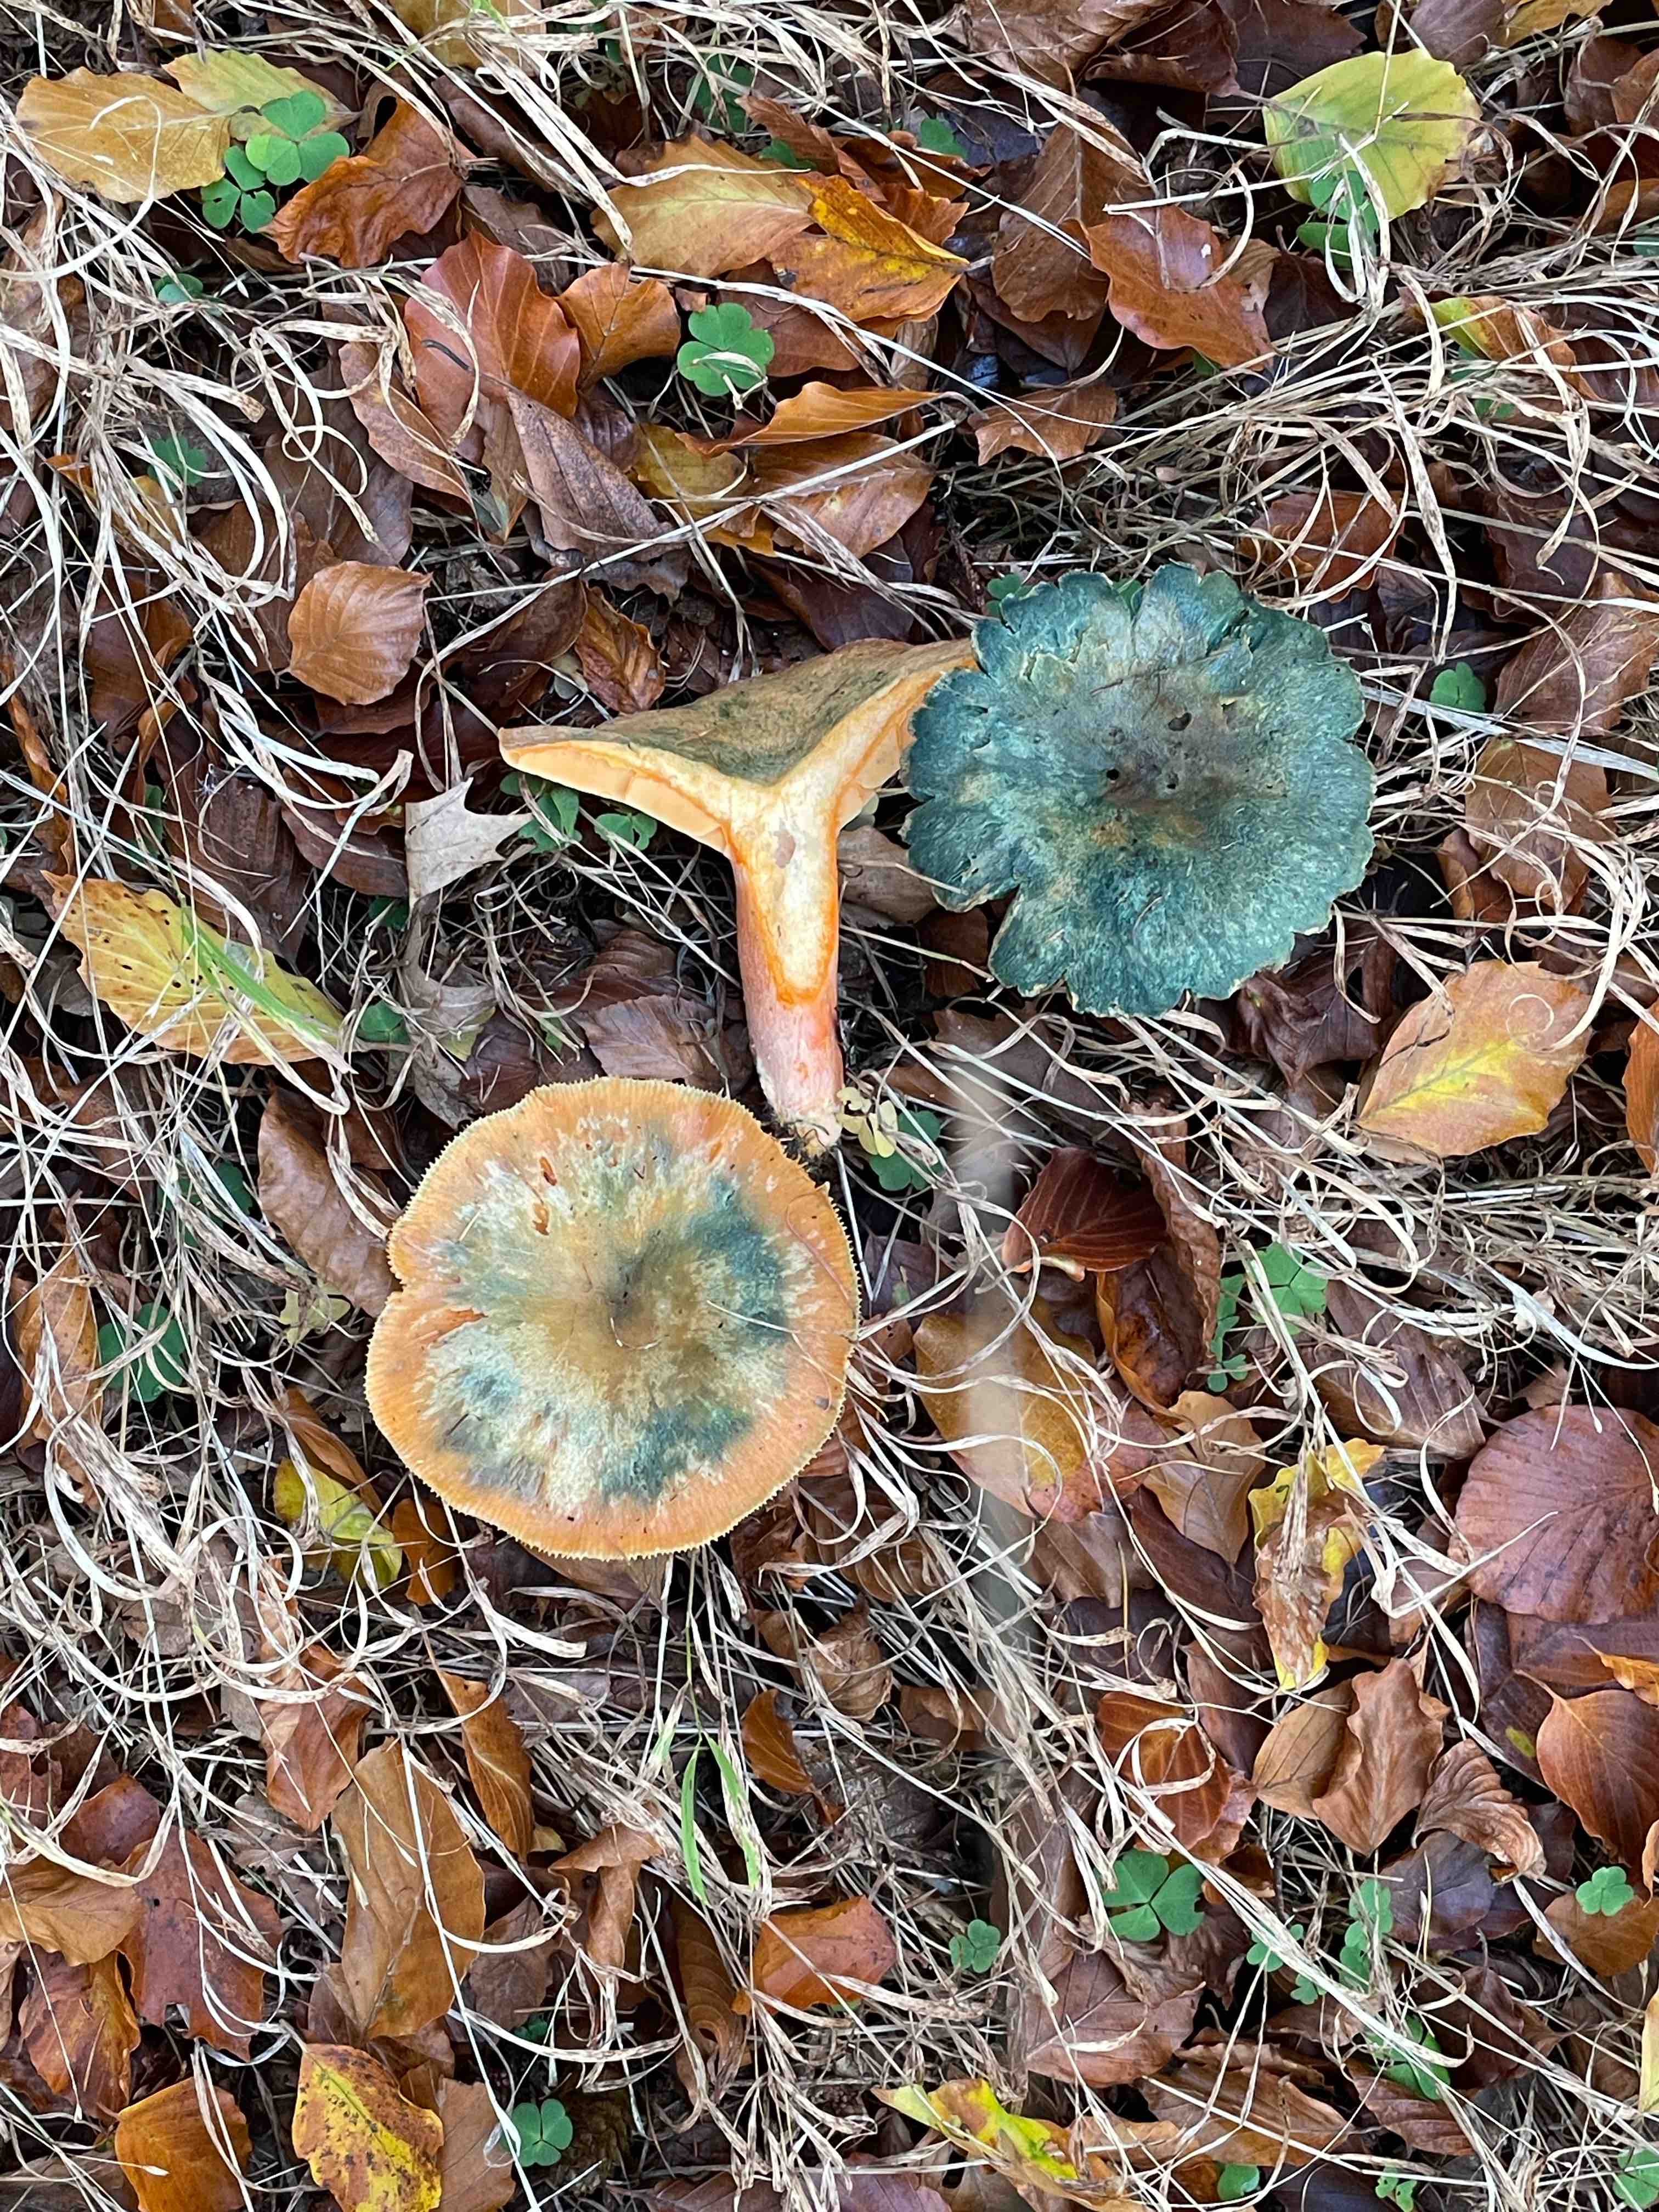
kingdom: Fungi
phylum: Basidiomycota
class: Agaricomycetes
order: Russulales
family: Russulaceae
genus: Lactarius
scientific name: Lactarius deterrimus
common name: gran-mælkehat
